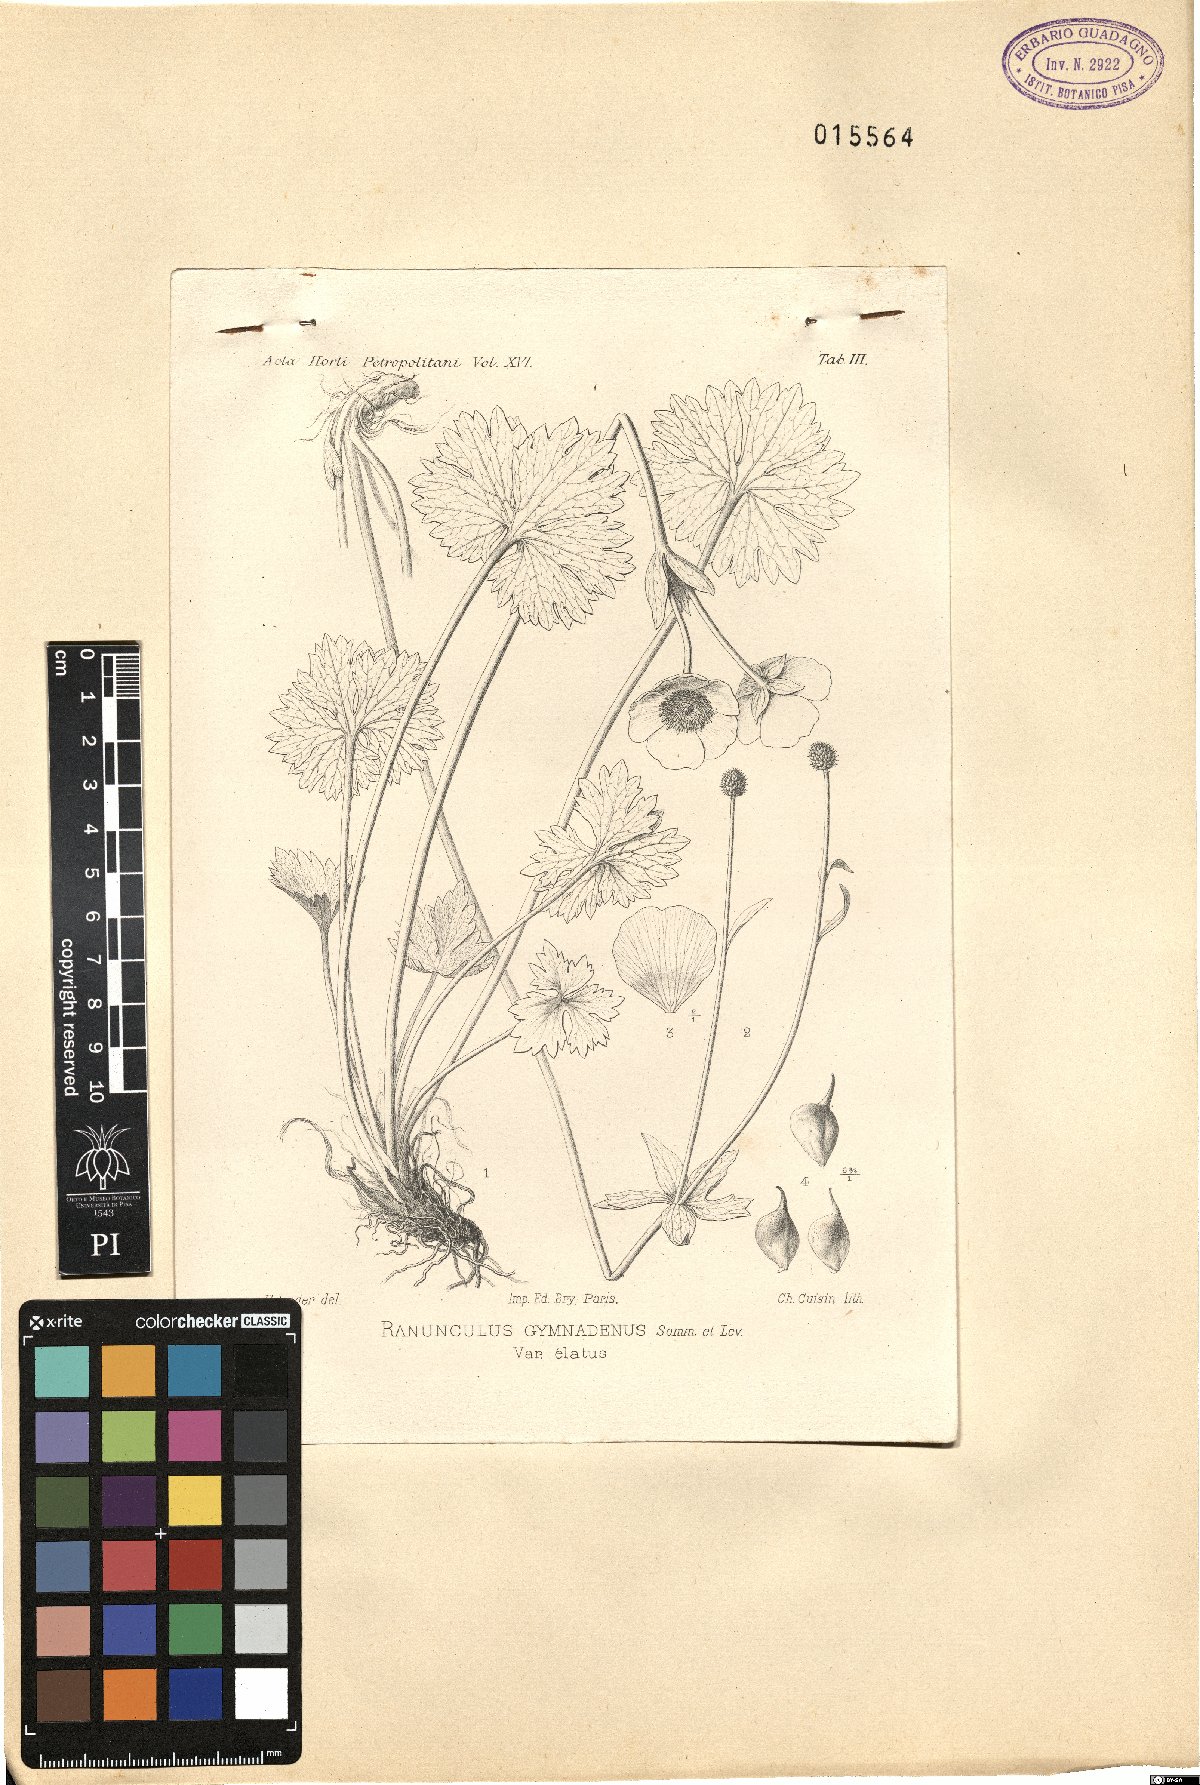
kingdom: Plantae
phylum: Tracheophyta
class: Magnoliopsida
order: Ranunculales
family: Ranunculaceae
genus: Ranunculus
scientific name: Ranunculus brachylobus
